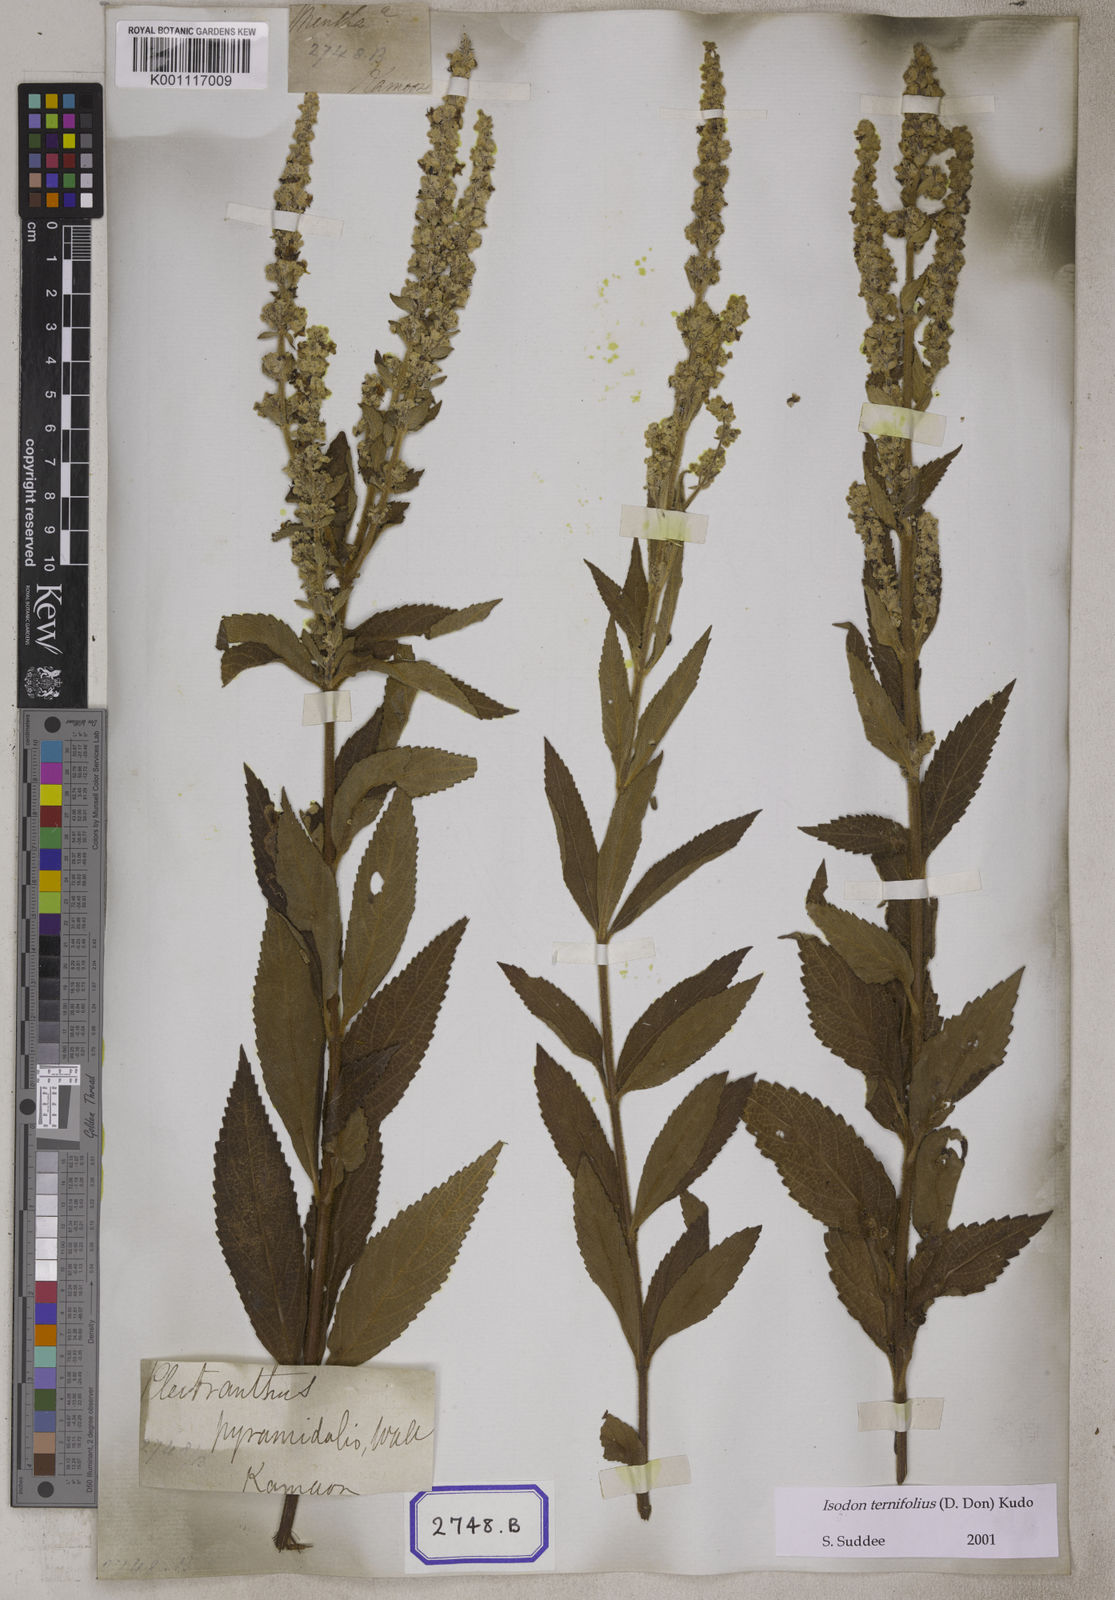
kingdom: Plantae
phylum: Tracheophyta
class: Magnoliopsida
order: Lamiales
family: Lamiaceae
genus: Isodon
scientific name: Isodon ternifolius
